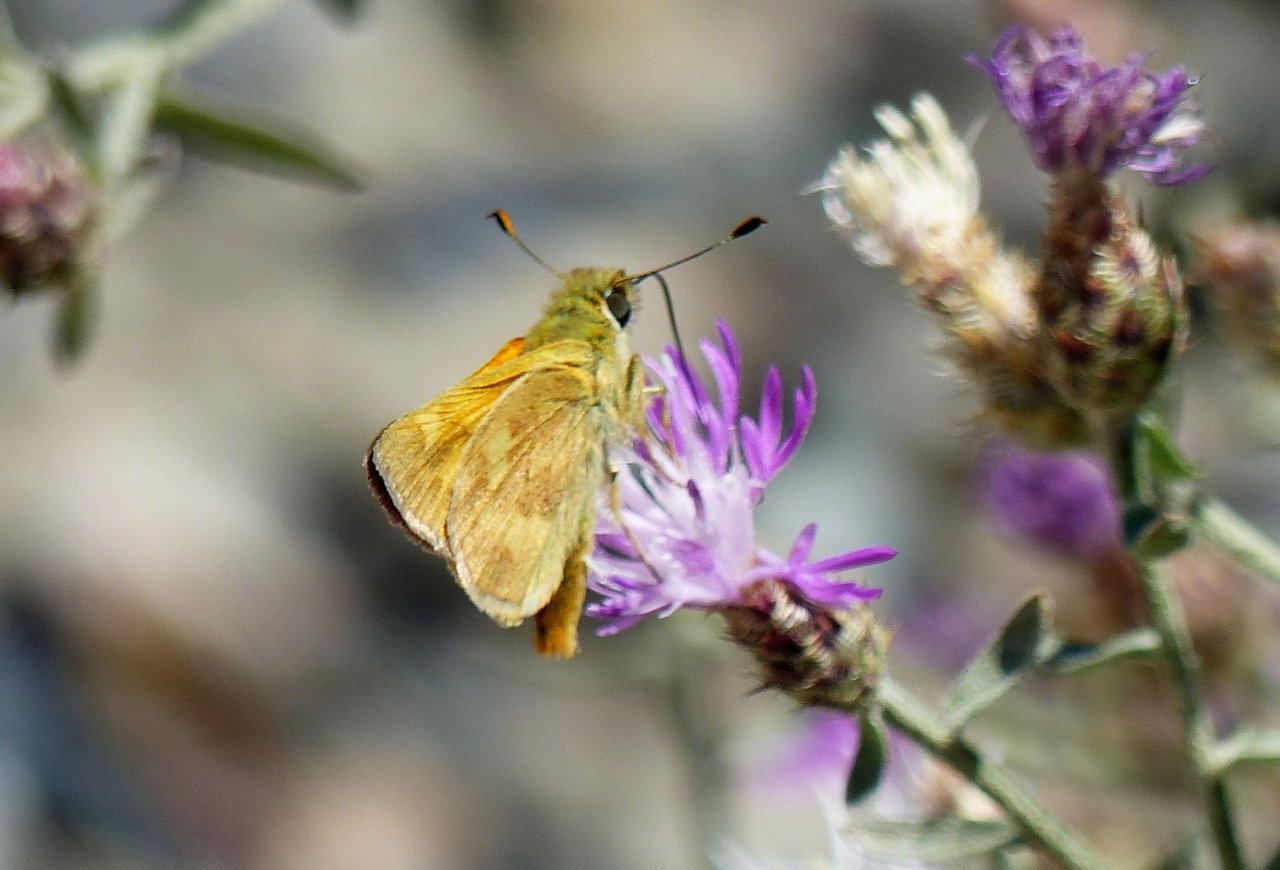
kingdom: Animalia
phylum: Arthropoda
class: Insecta
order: Lepidoptera
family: Hesperiidae
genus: Ochlodes
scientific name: Ochlodes sylvanoides
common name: Woodland Skipper
